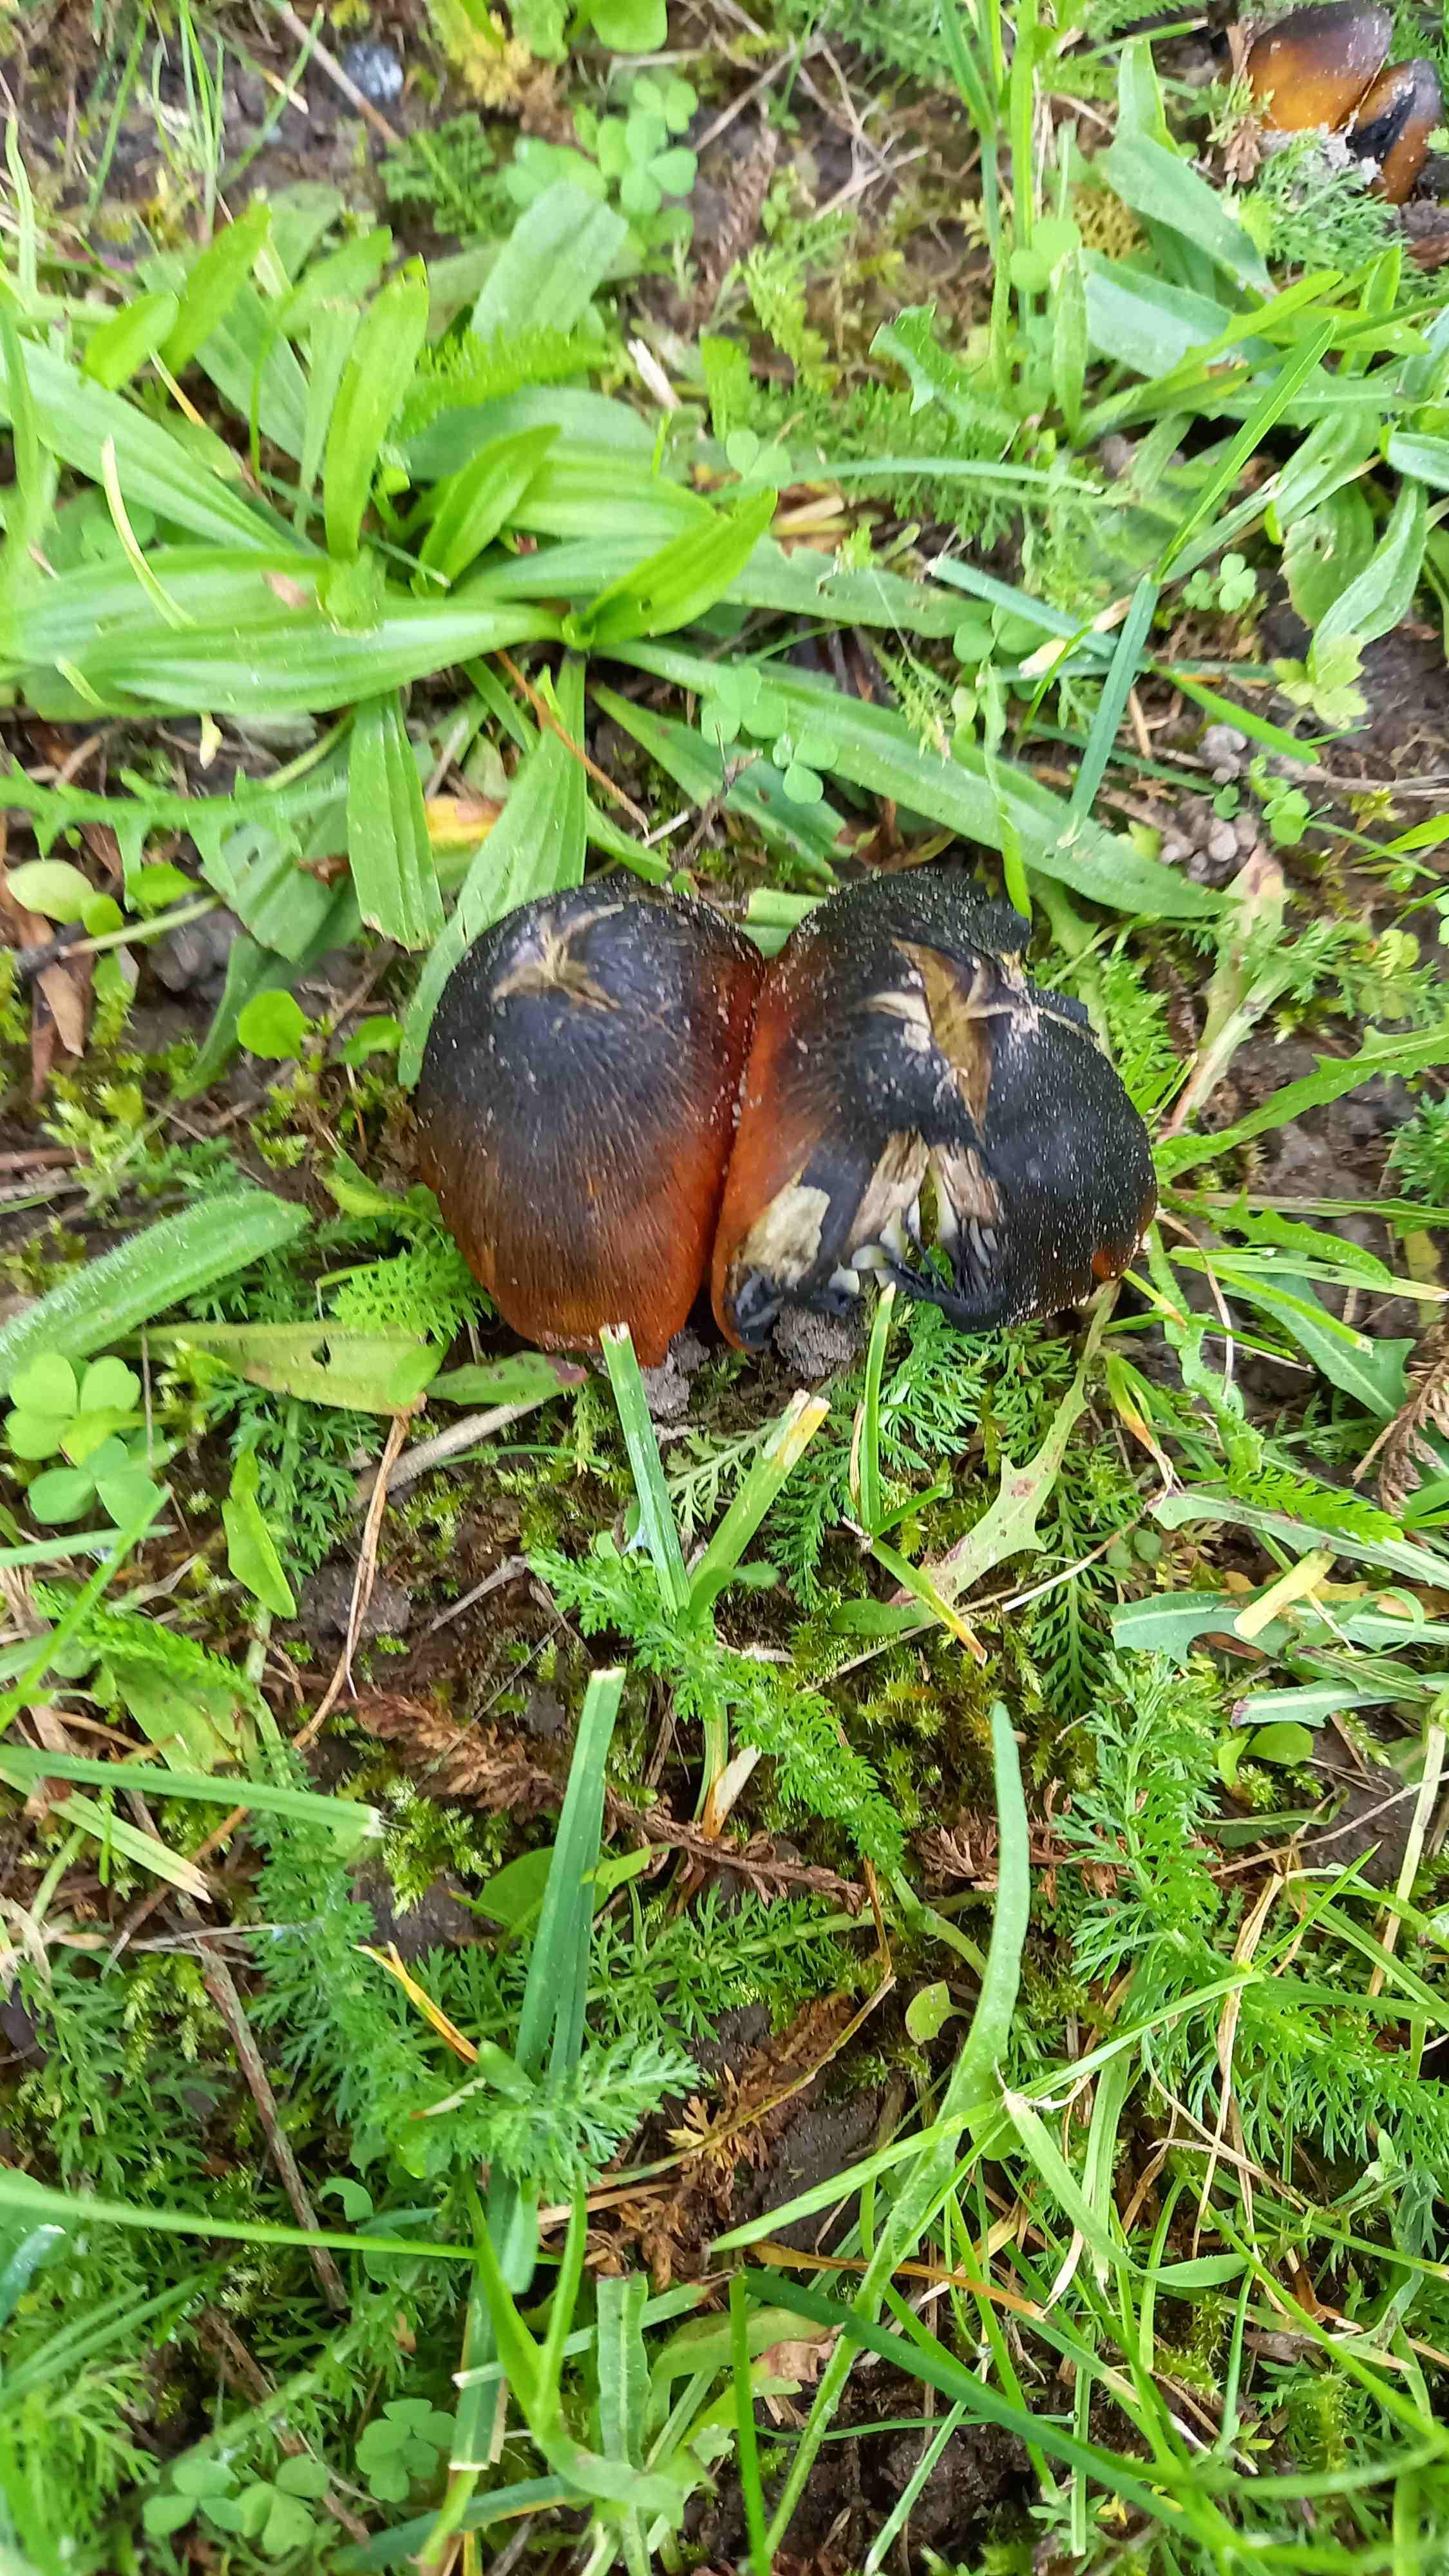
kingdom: Fungi
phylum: Basidiomycota
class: Agaricomycetes
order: Agaricales
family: Hygrophoraceae
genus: Hygrocybe
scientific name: Hygrocybe conica
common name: Blackening wax-cap
